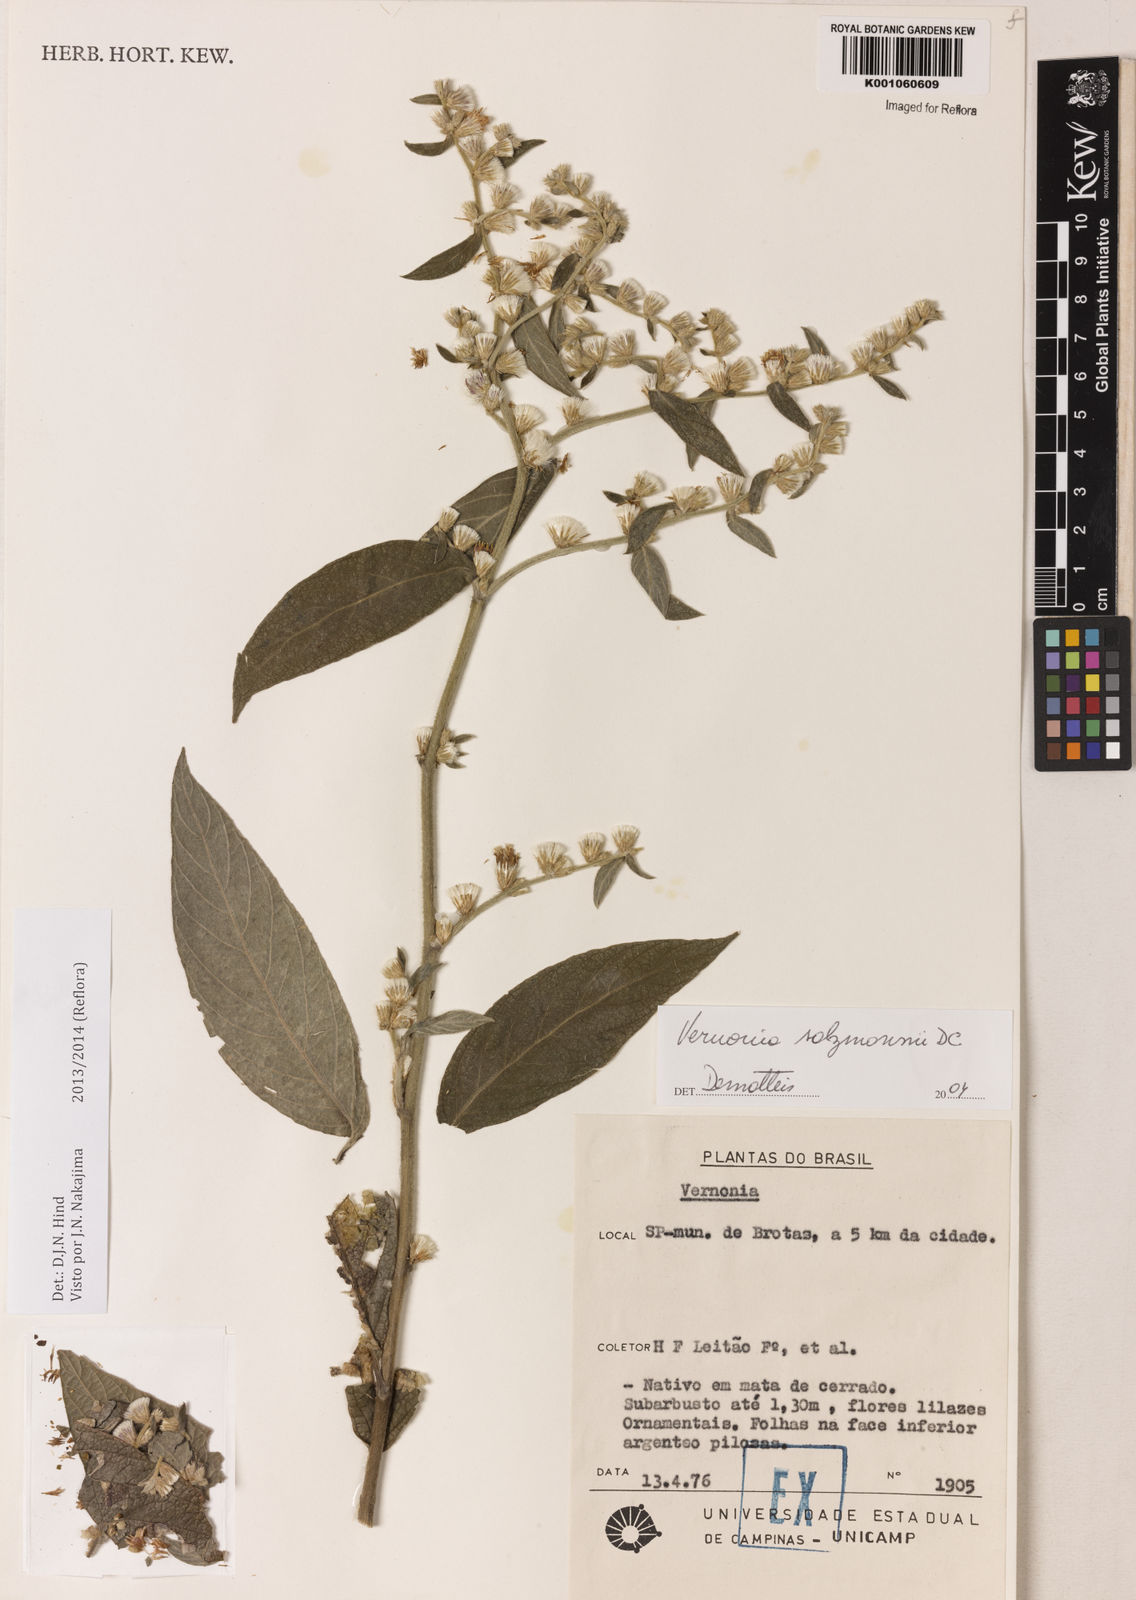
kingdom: Plantae
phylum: Tracheophyta
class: Magnoliopsida
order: Asterales
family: Asteraceae
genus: Lepidaploa
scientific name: Lepidaploa salzmannii
